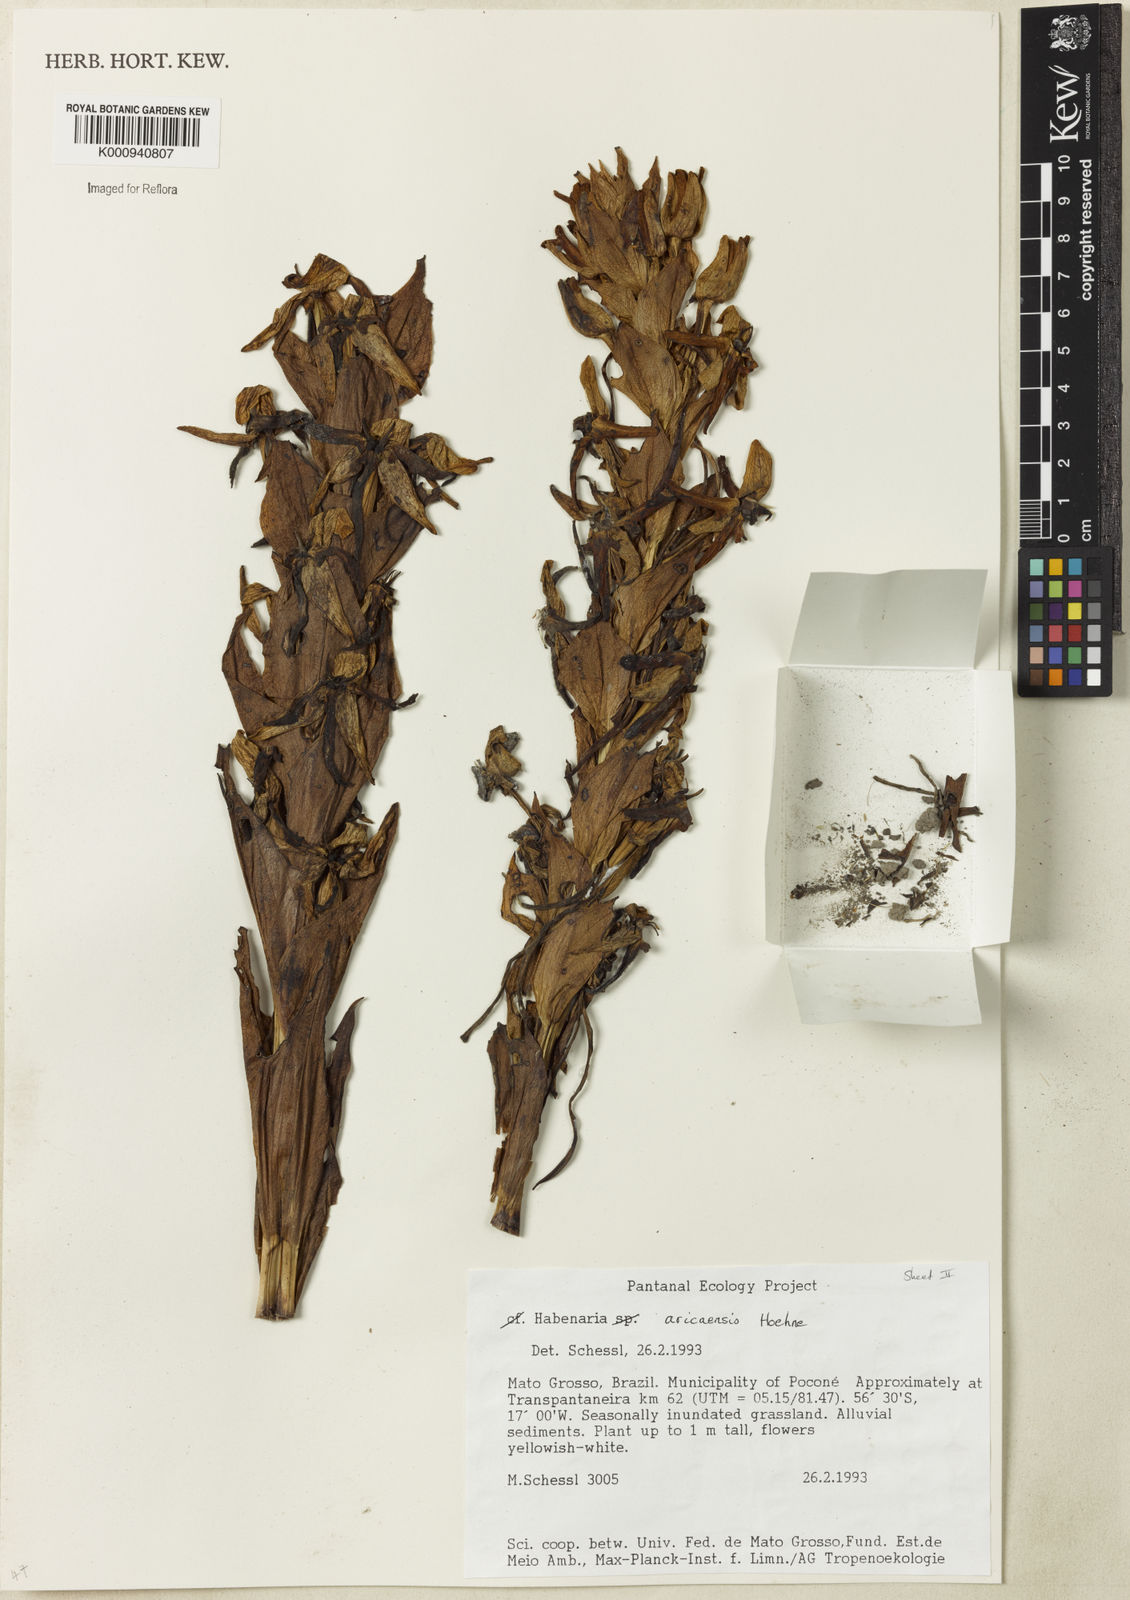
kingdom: Plantae
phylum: Tracheophyta
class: Liliopsida
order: Asparagales
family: Orchidaceae
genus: Habenaria
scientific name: Habenaria aricaensis
